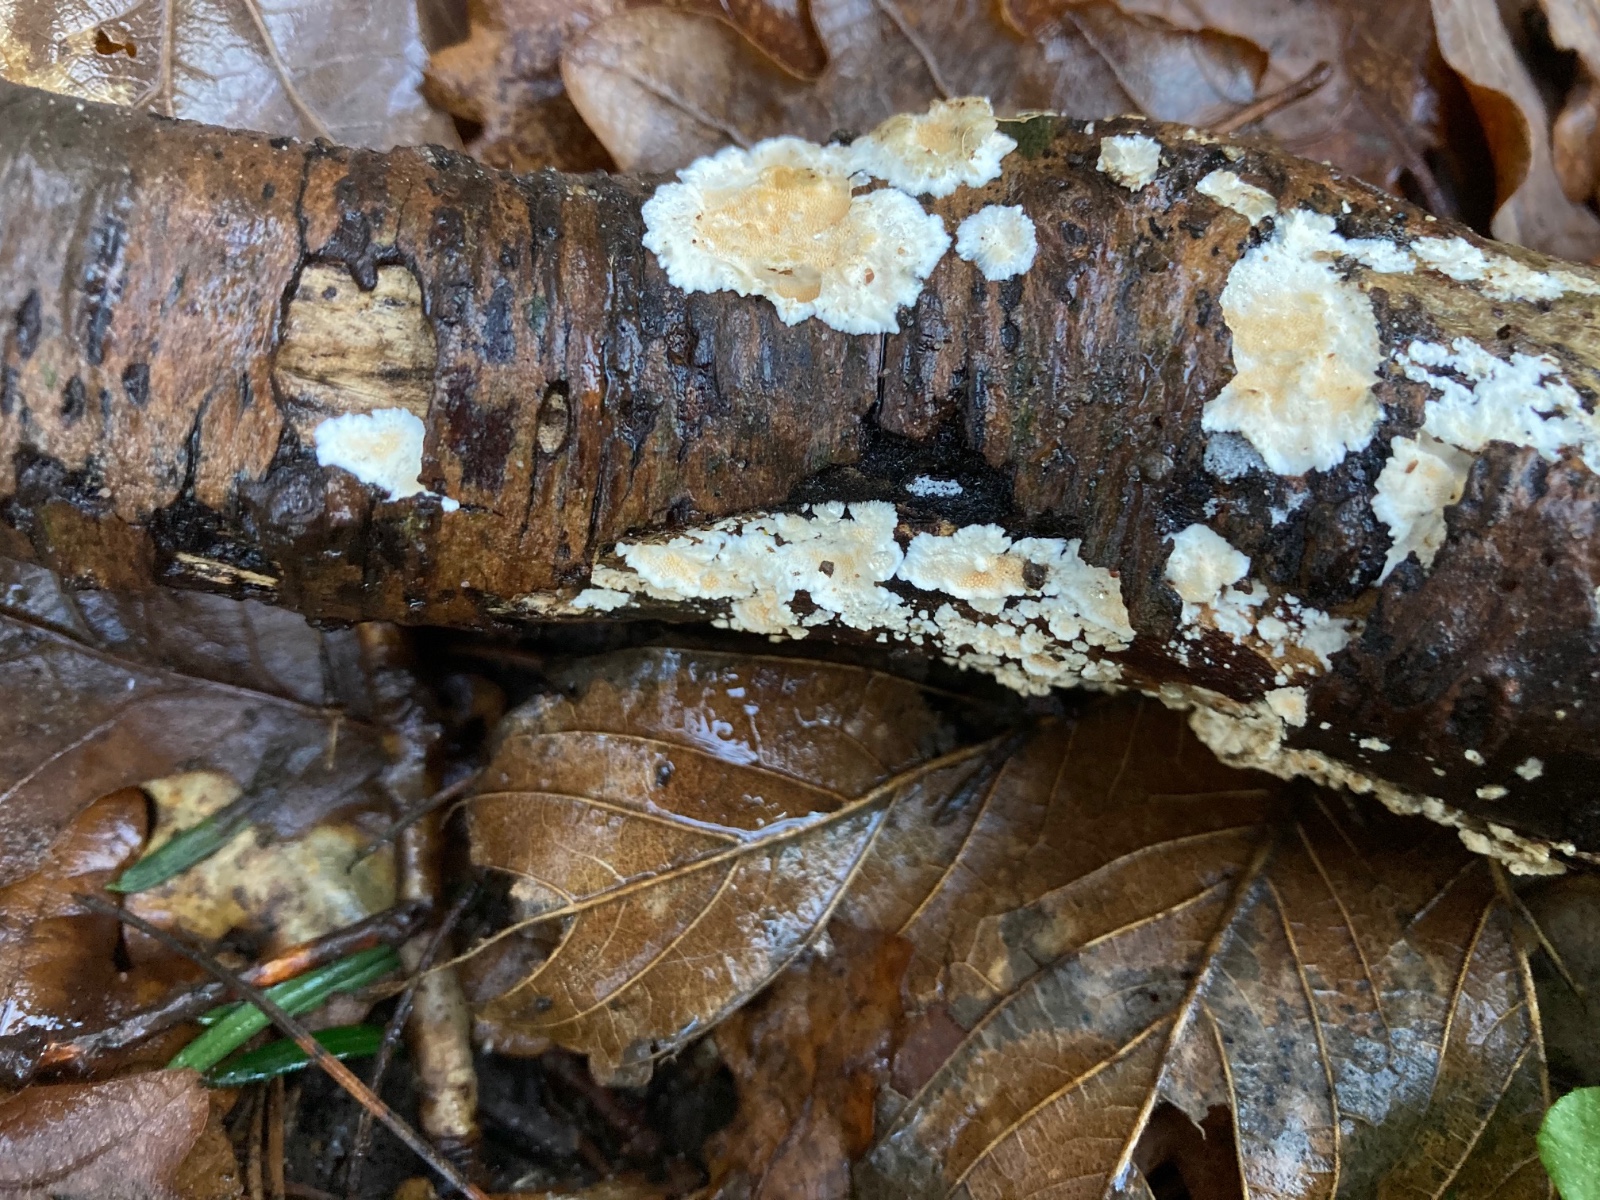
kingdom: Fungi
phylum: Basidiomycota
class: Agaricomycetes
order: Polyporales
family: Steccherinaceae
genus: Steccherinum
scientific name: Steccherinum ochraceum
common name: almindelig skønpig
